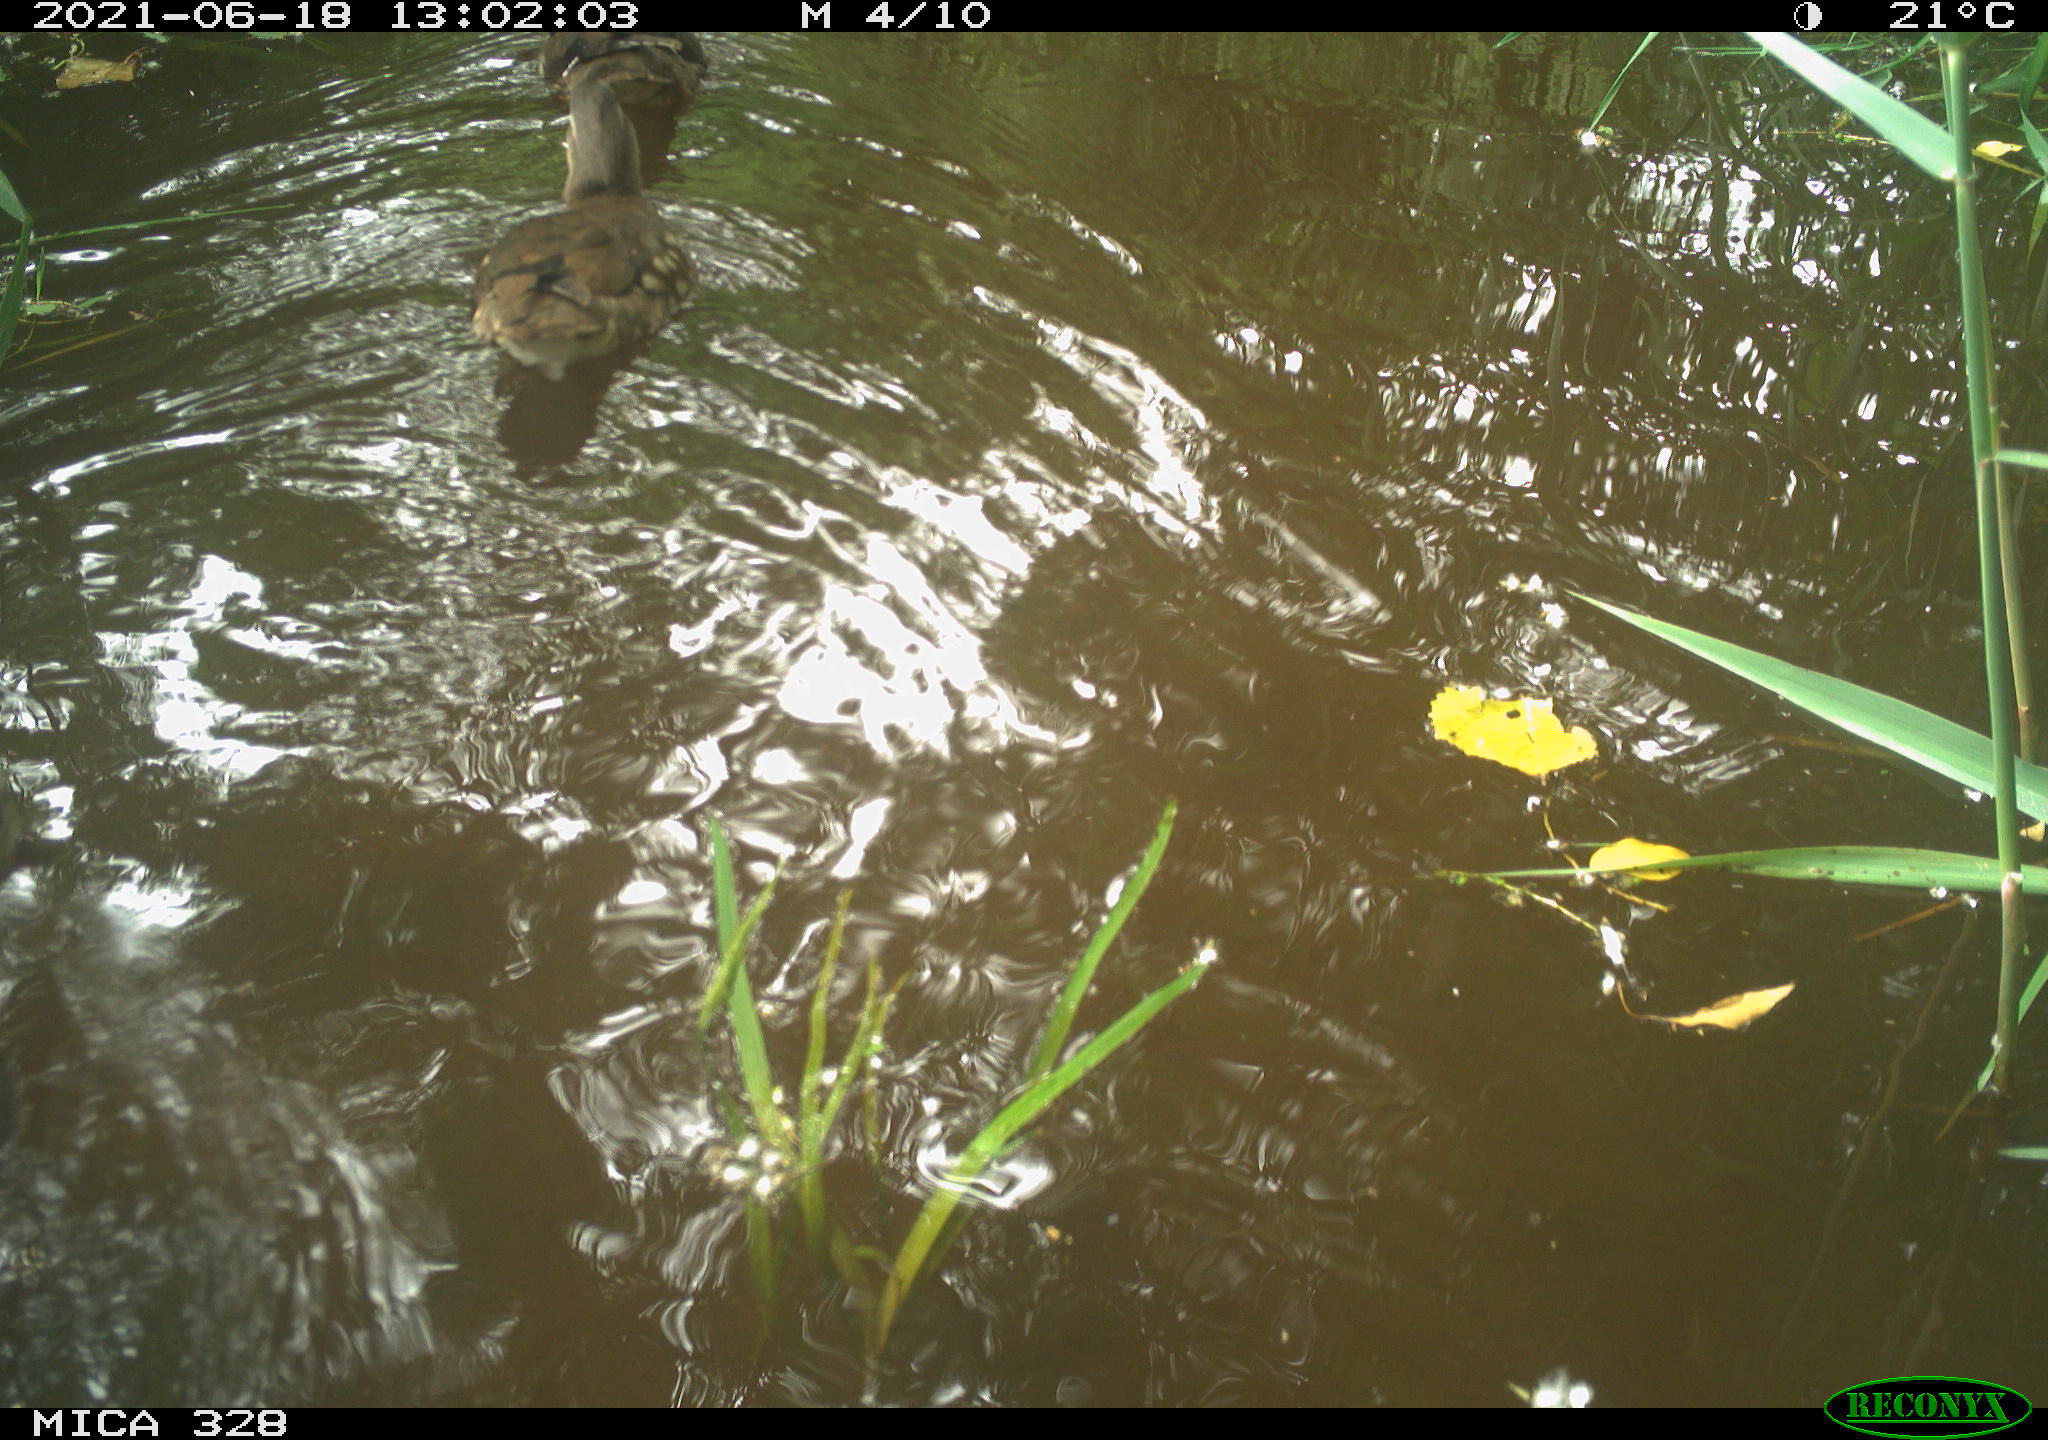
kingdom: Animalia
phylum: Chordata
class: Aves
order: Anseriformes
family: Anatidae
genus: Aix
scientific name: Aix galericulata
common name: Mandarin duck
